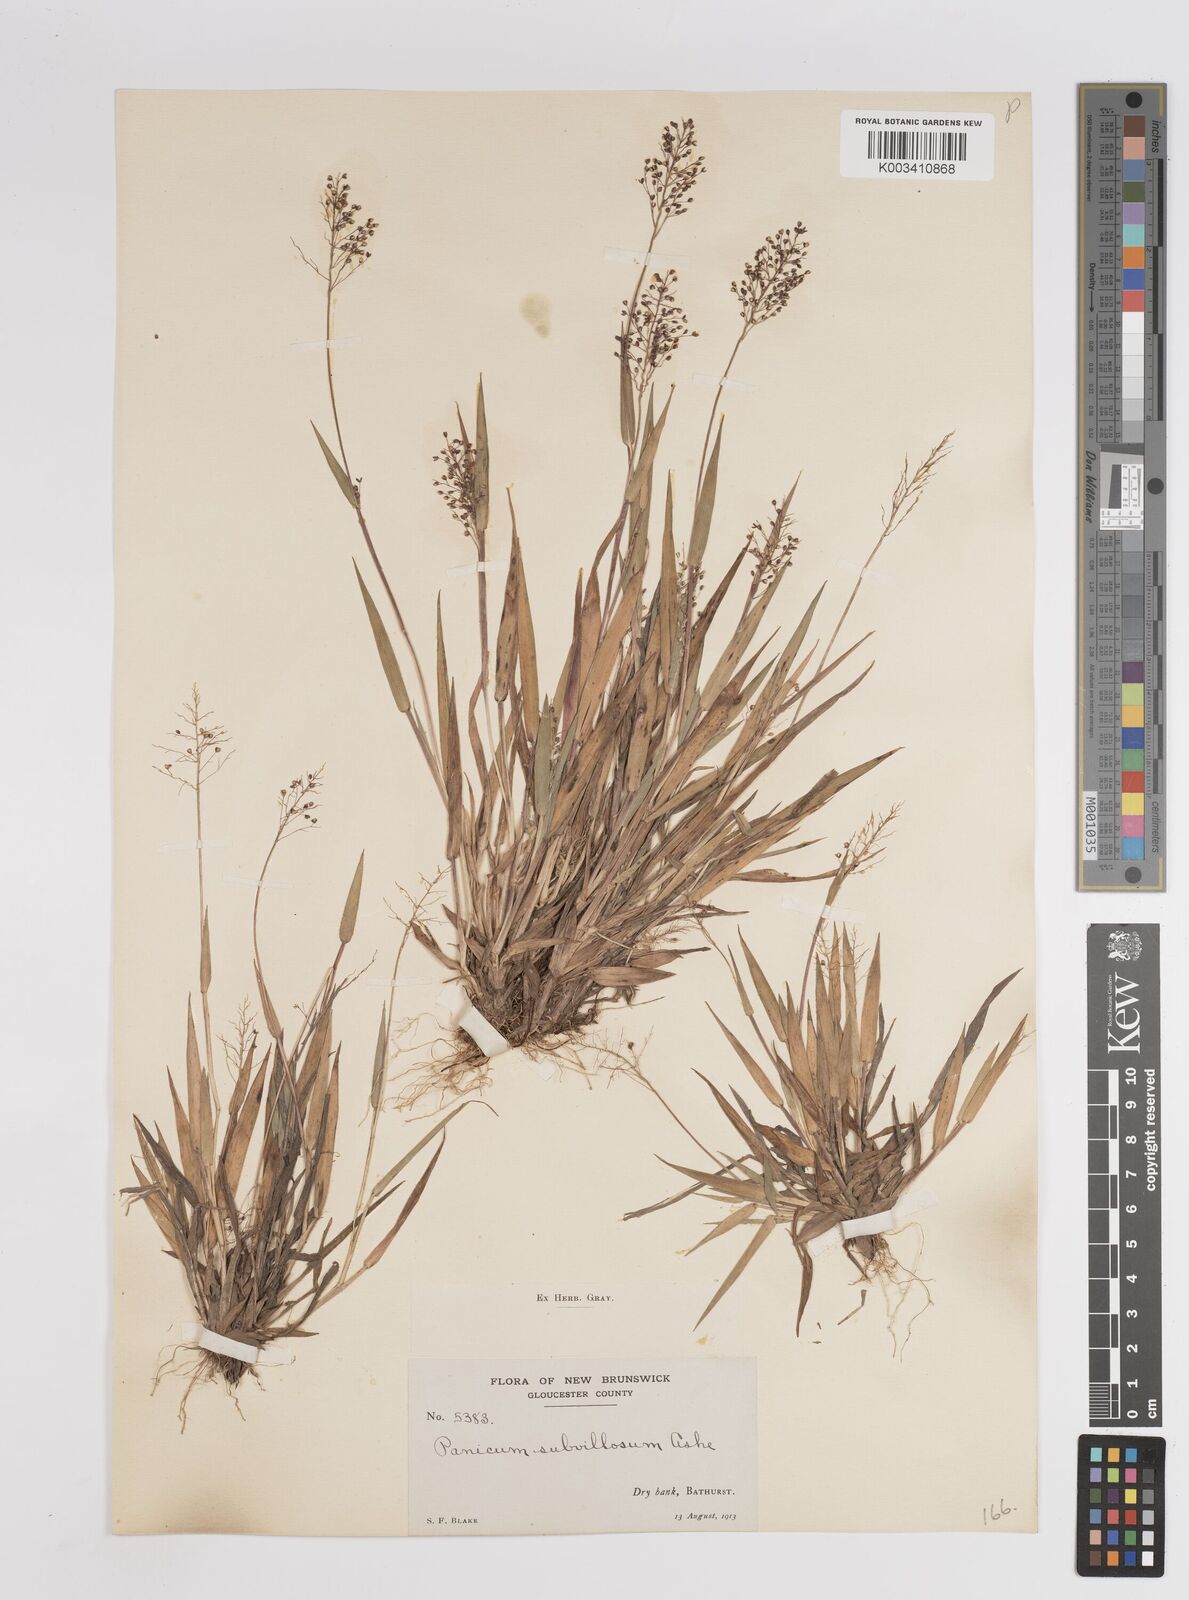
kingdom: Plantae
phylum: Tracheophyta
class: Liliopsida
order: Poales
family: Poaceae
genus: Dichanthelium
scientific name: Dichanthelium subvillosum
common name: Soft-haired panicgrass
